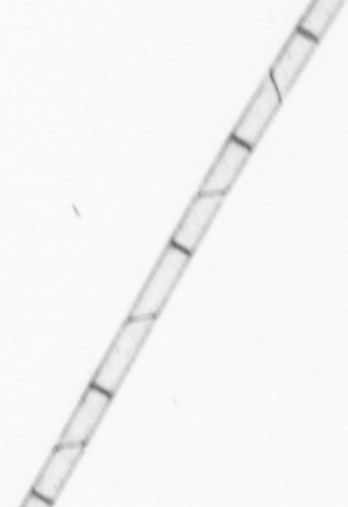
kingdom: Chromista
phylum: Ochrophyta
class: Bacillariophyceae
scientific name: Bacillariophyceae
